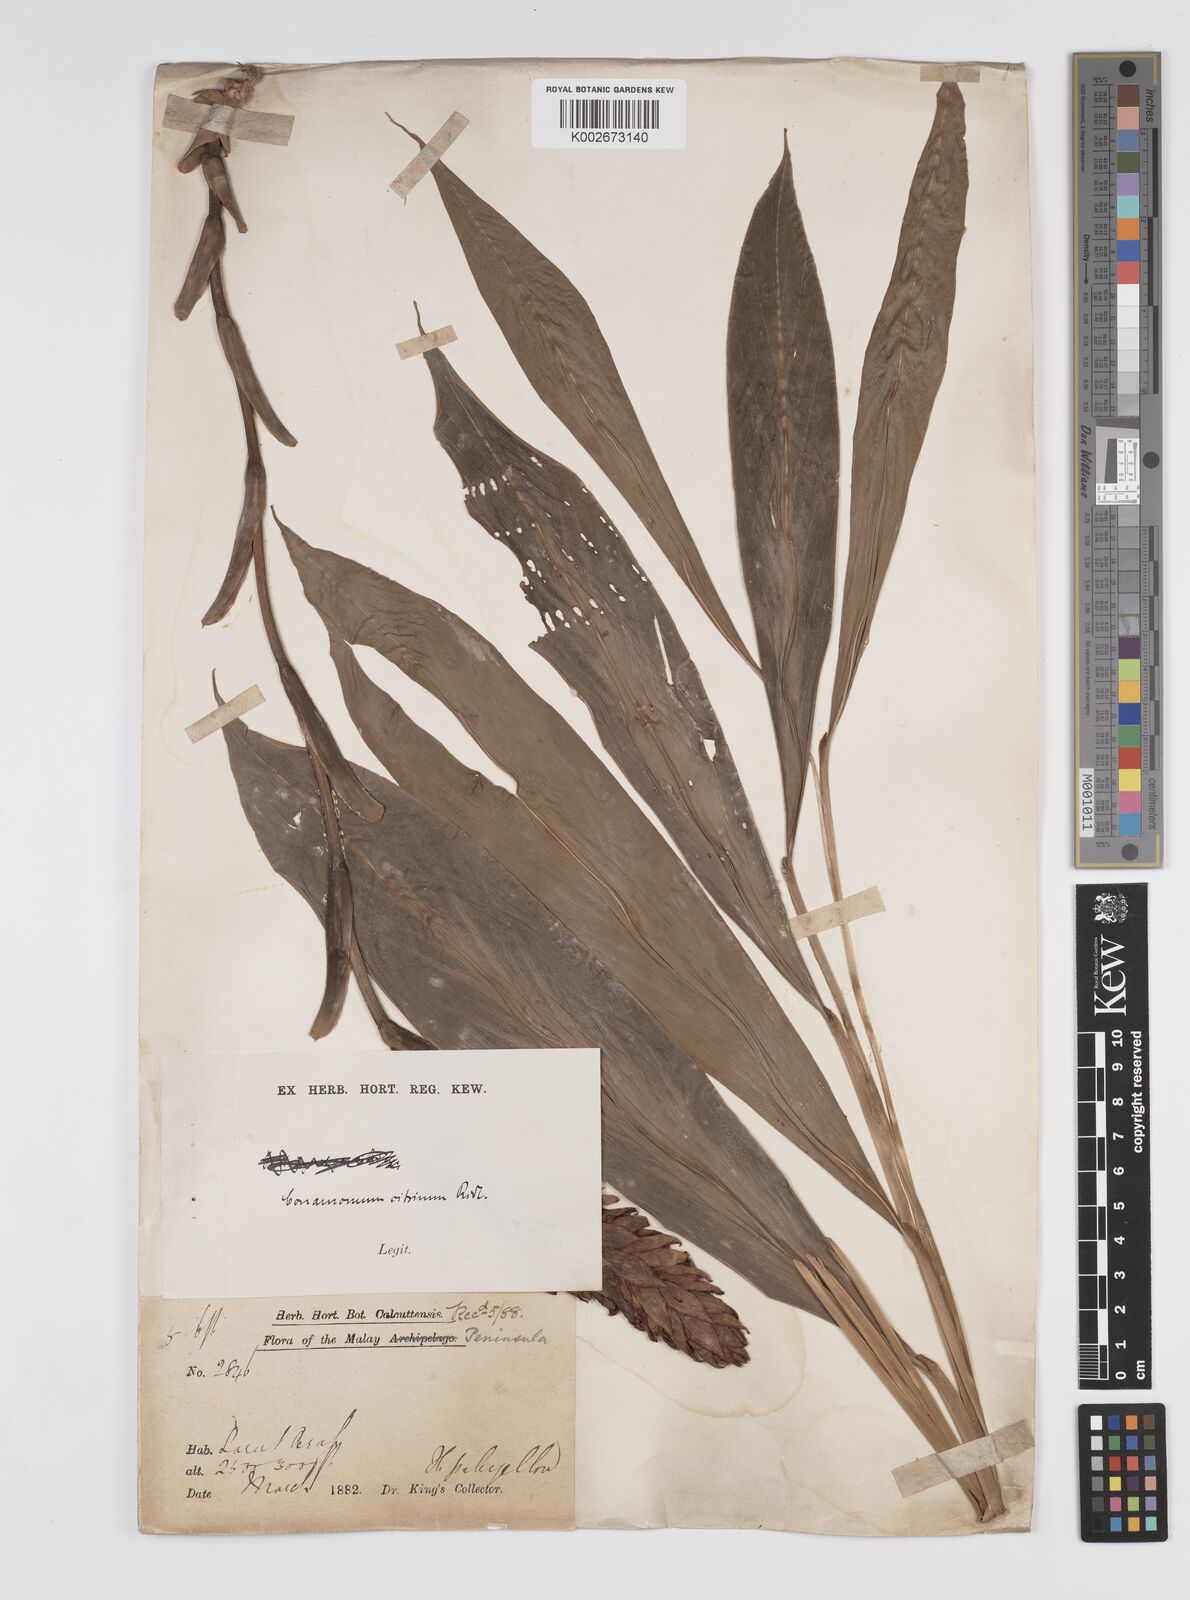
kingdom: Plantae
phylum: Tracheophyta
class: Liliopsida
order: Zingiberales
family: Zingiberaceae
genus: Conamomum
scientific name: Conamomum citrinum
